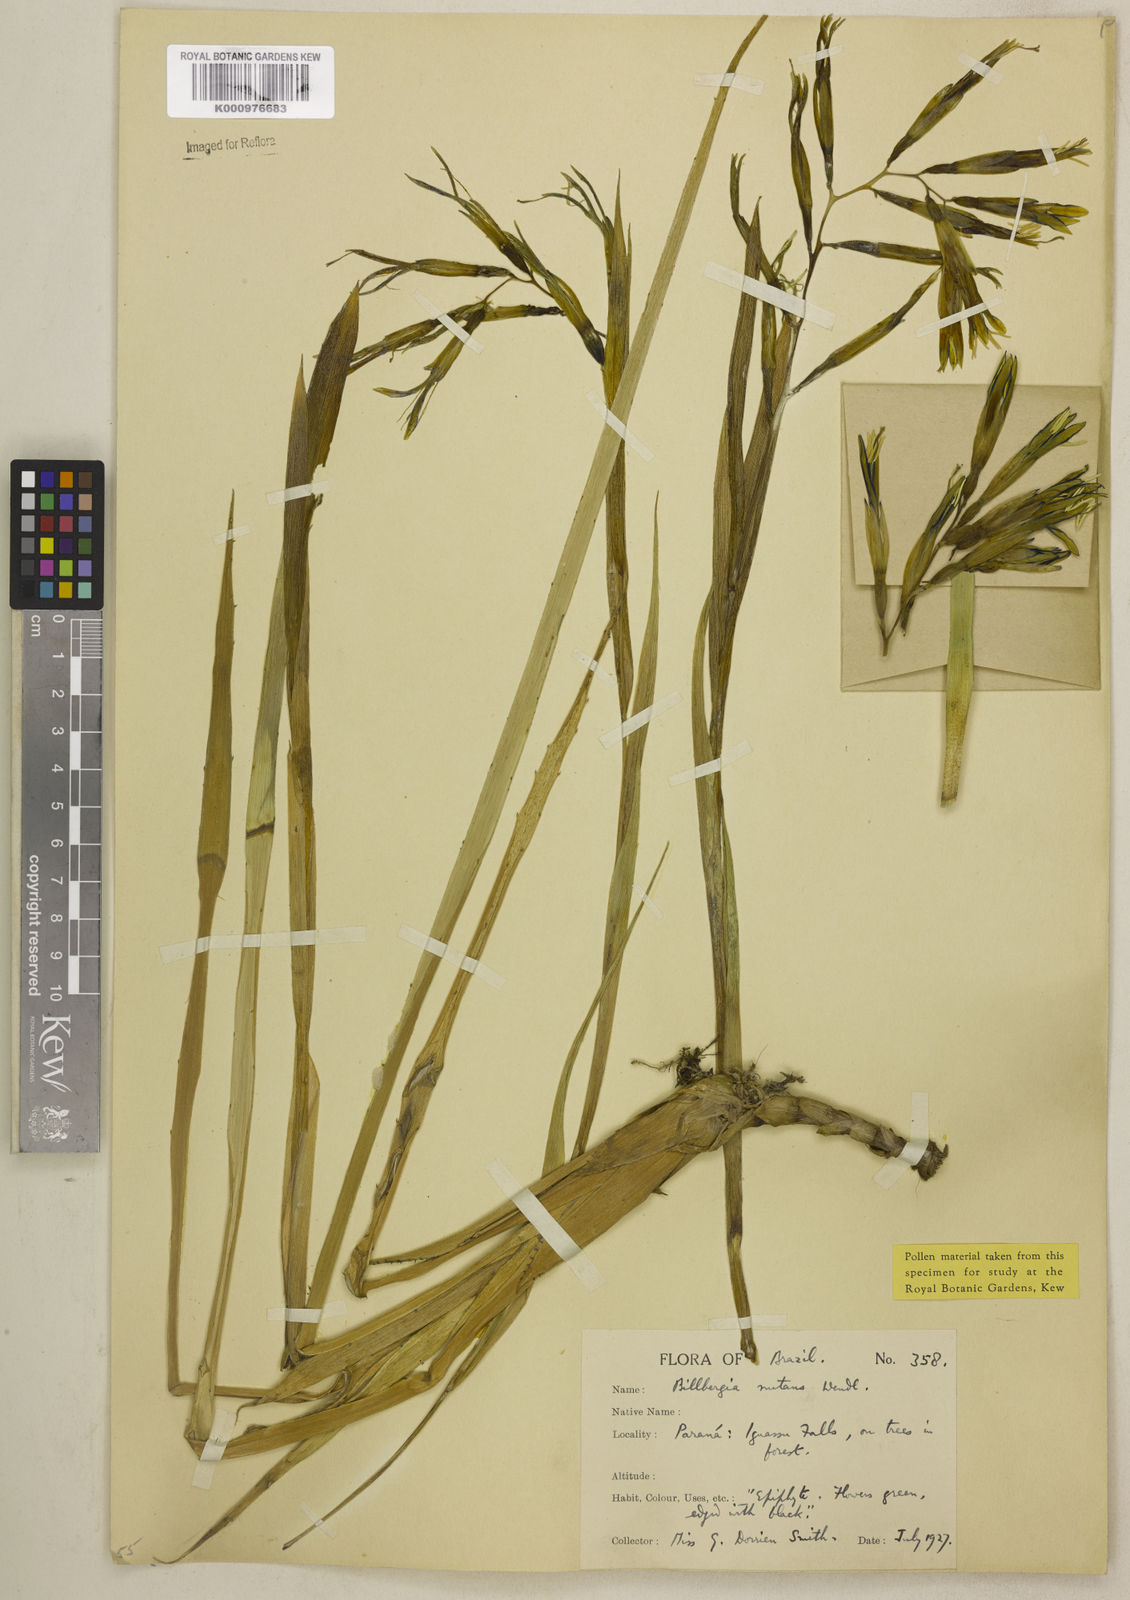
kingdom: Plantae
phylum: Tracheophyta
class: Liliopsida
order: Poales
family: Bromeliaceae
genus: Billbergia
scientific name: Billbergia nutans
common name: Friendship-plant
